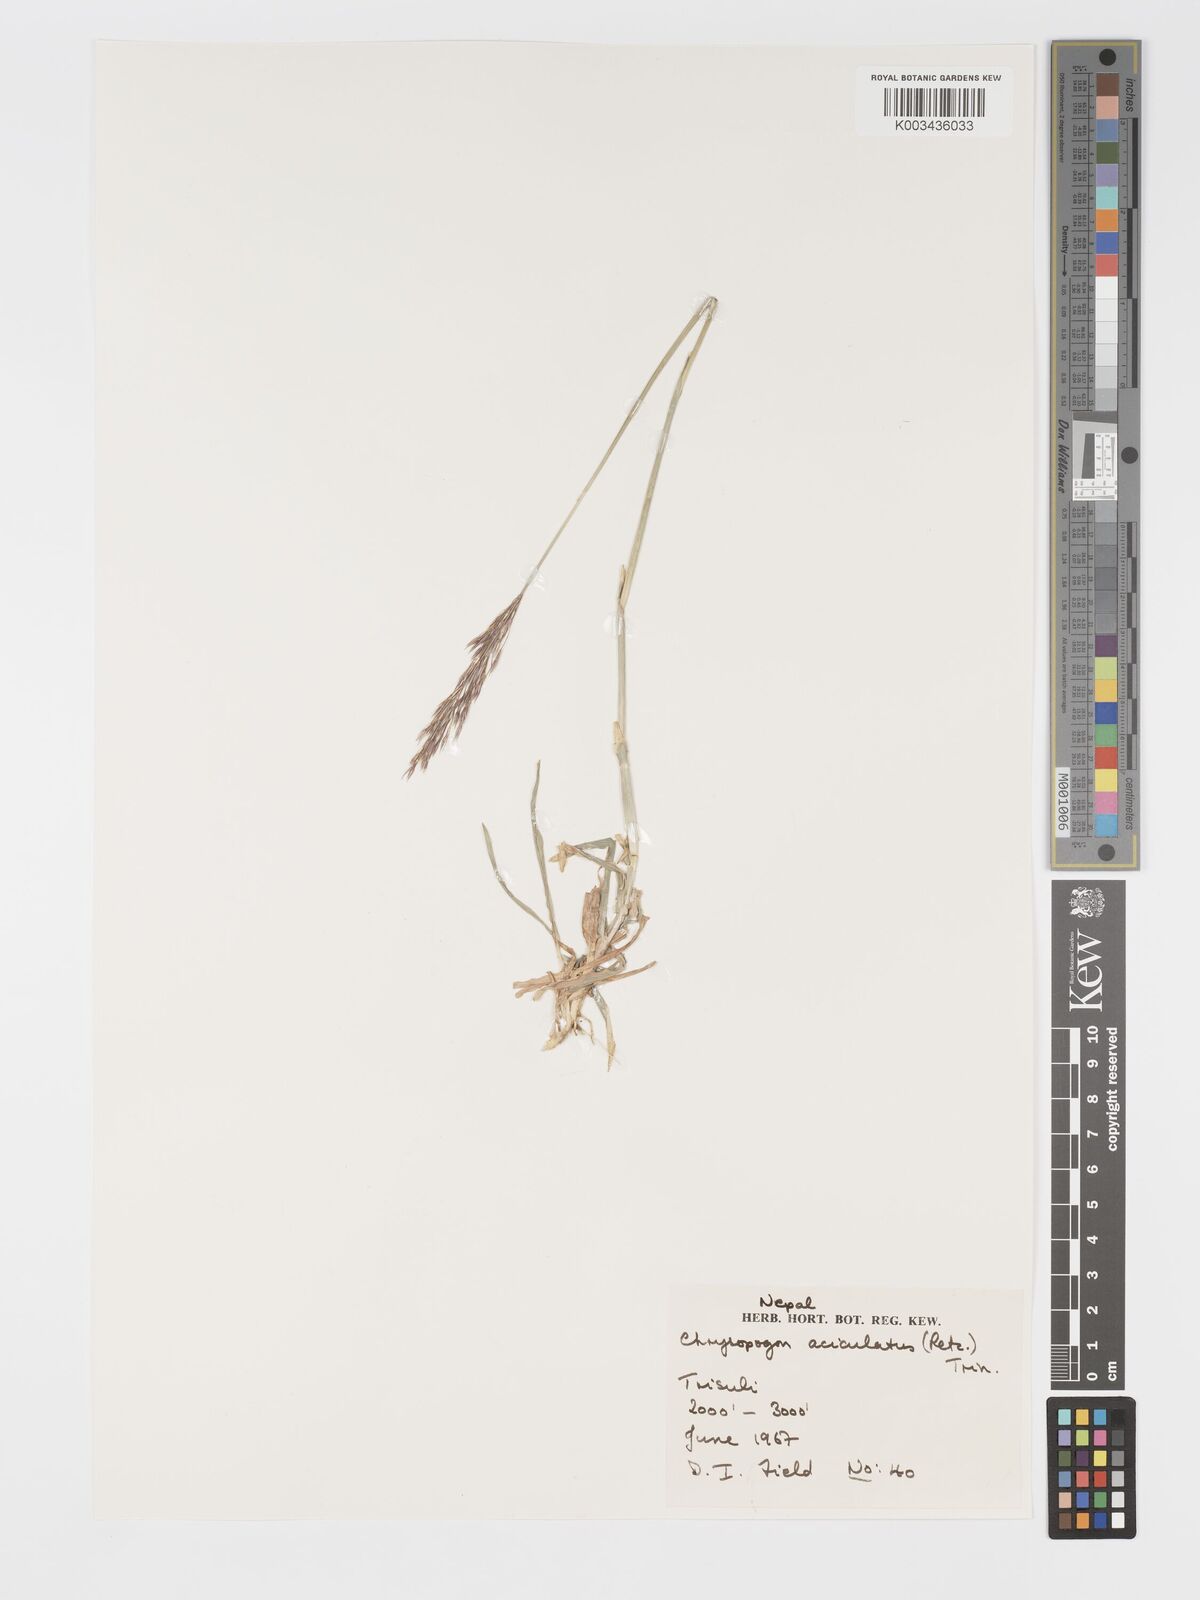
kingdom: Plantae
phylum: Tracheophyta
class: Liliopsida
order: Poales
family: Poaceae
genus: Chrysopogon
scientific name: Chrysopogon aciculatus
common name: Pilipiliula
